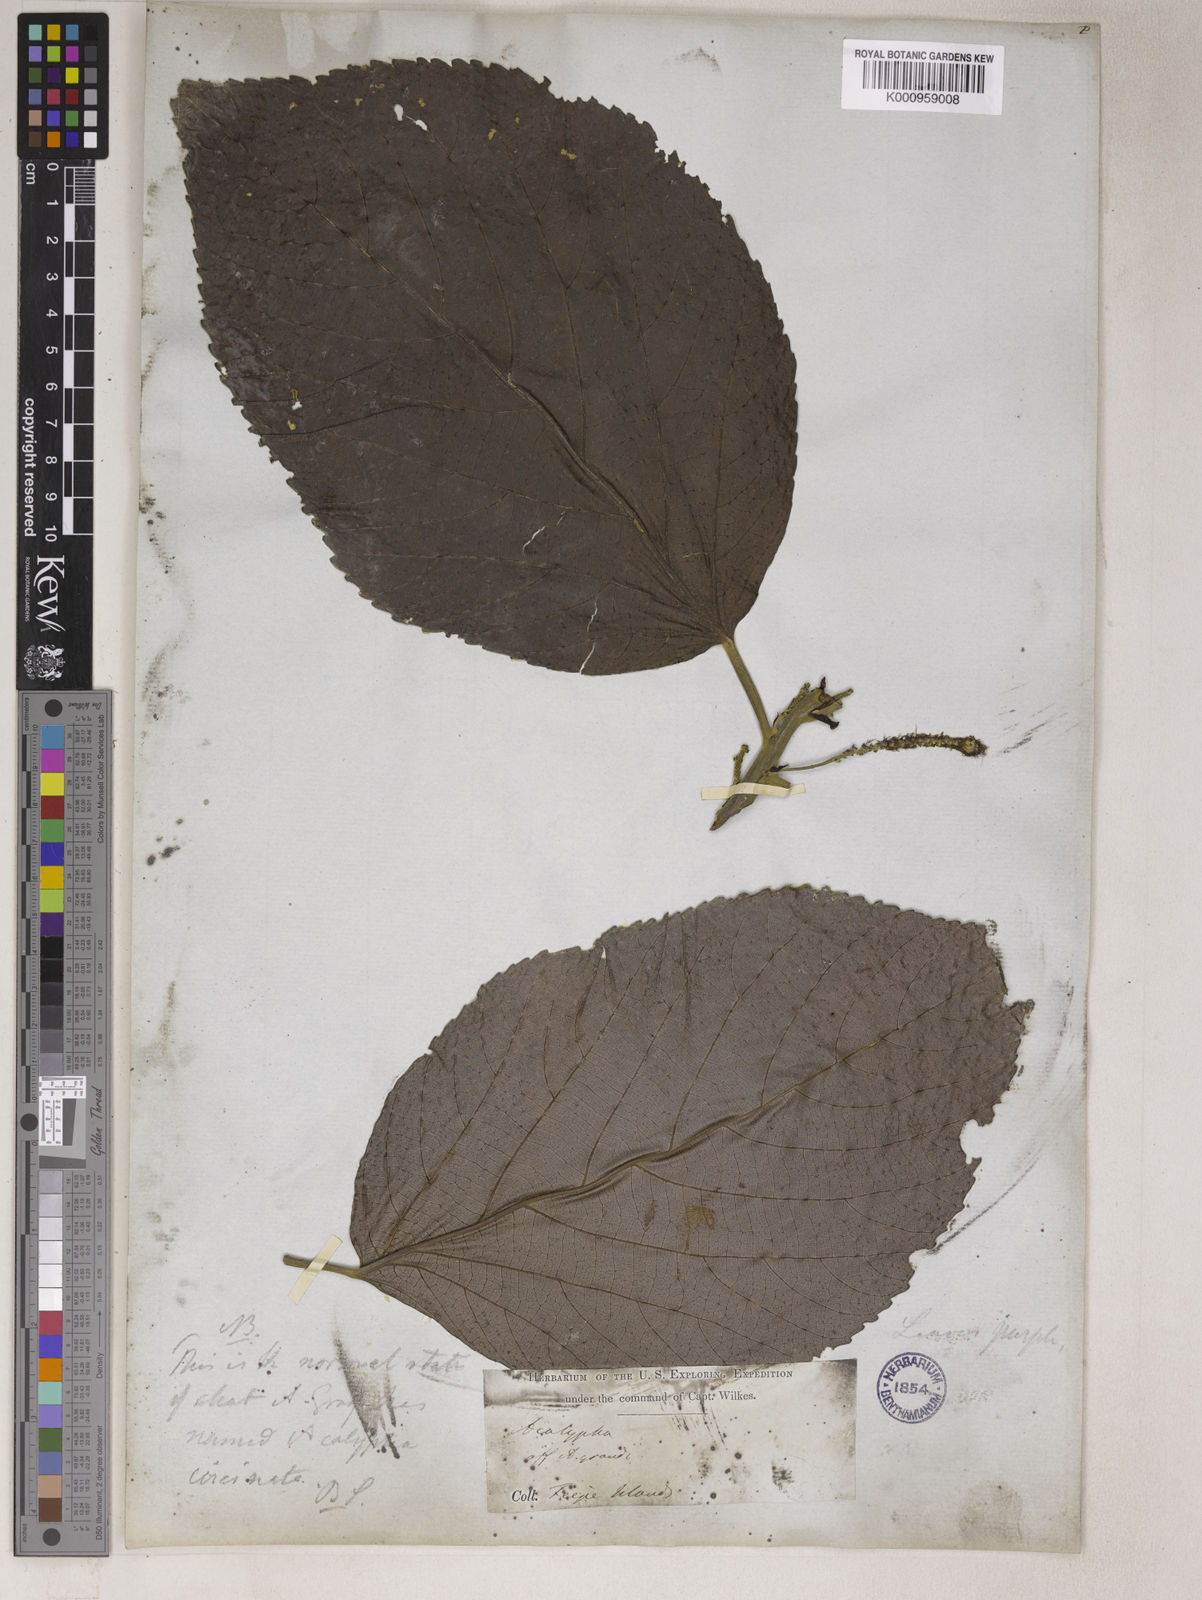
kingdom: Plantae
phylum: Tracheophyta
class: Magnoliopsida
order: Malpighiales
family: Euphorbiaceae
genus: Acalypha
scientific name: Acalypha
